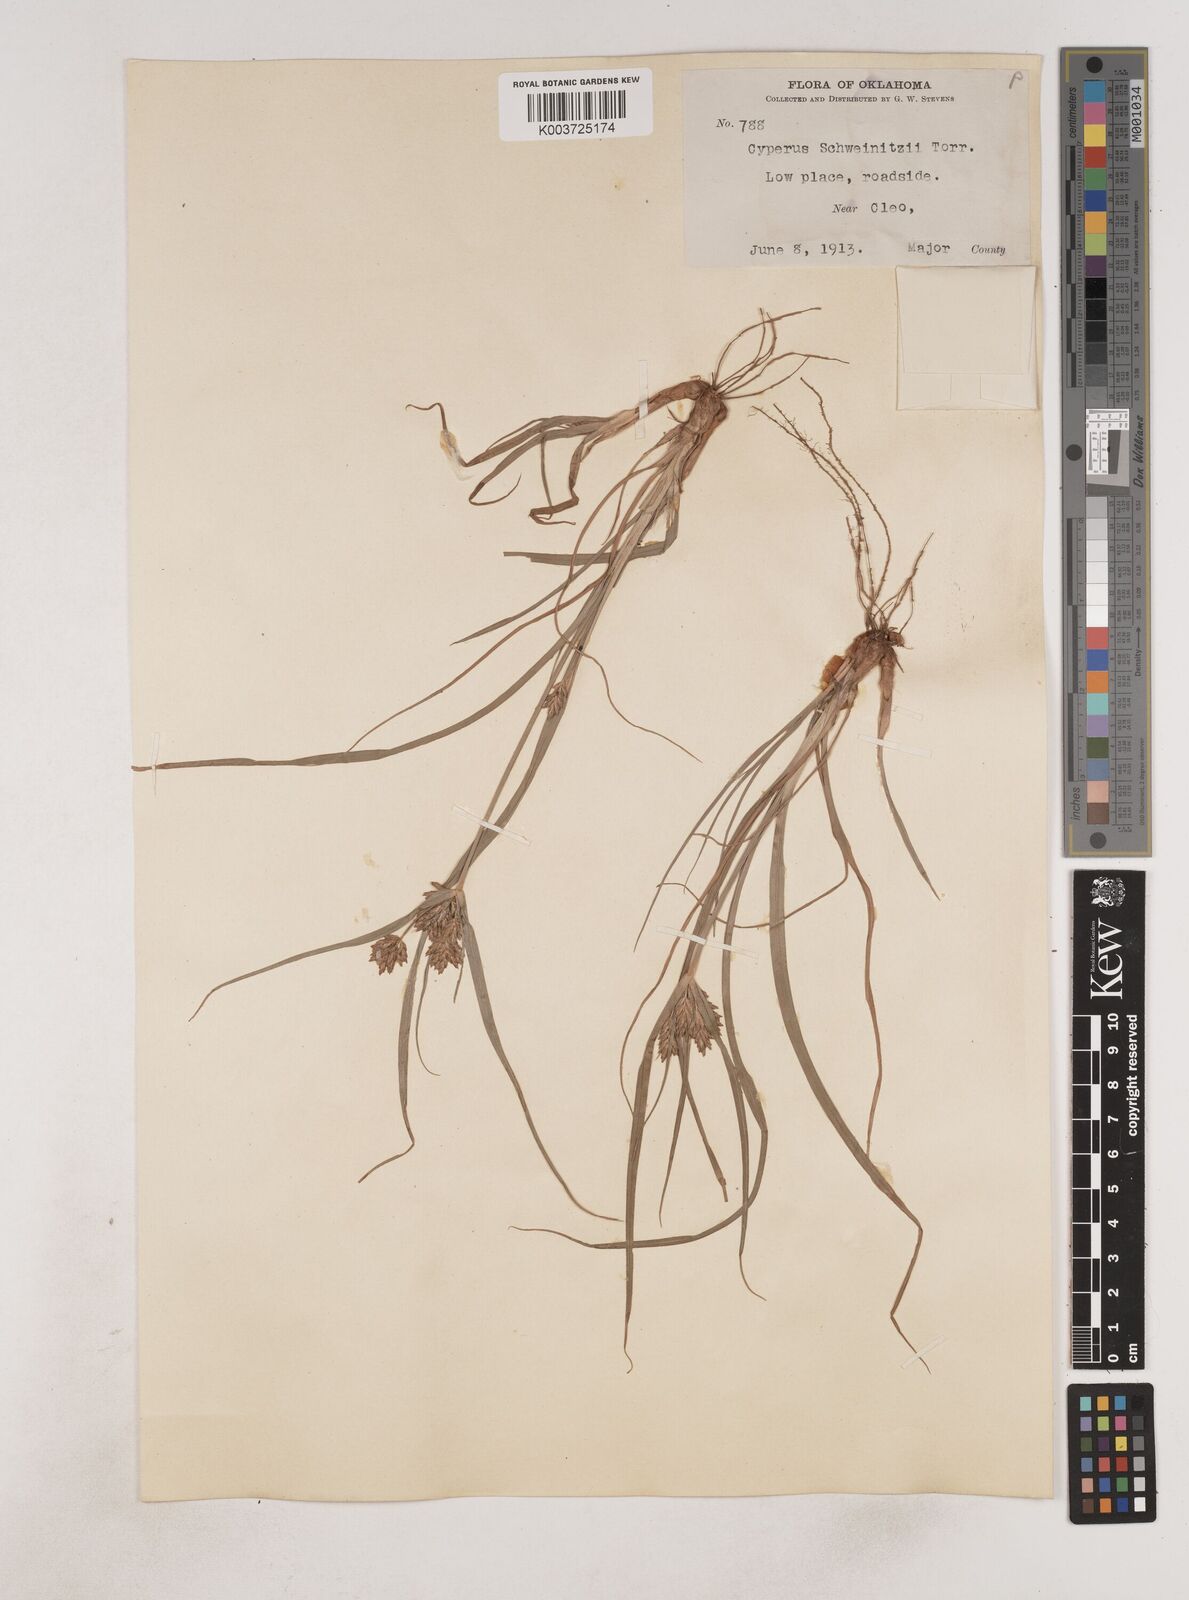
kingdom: Plantae
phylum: Tracheophyta
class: Liliopsida
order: Poales
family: Cyperaceae
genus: Cyperus
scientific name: Cyperus schweinitzii
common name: Schweinitz's cyperus
